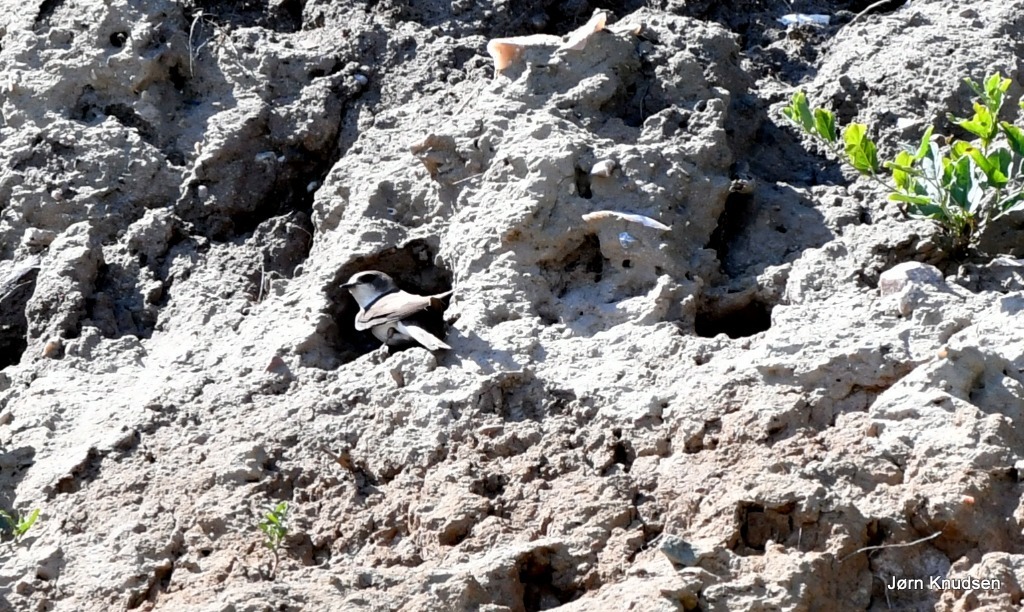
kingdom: Animalia
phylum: Chordata
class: Aves
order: Passeriformes
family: Hirundinidae
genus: Riparia
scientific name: Riparia riparia
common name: Digesvale
